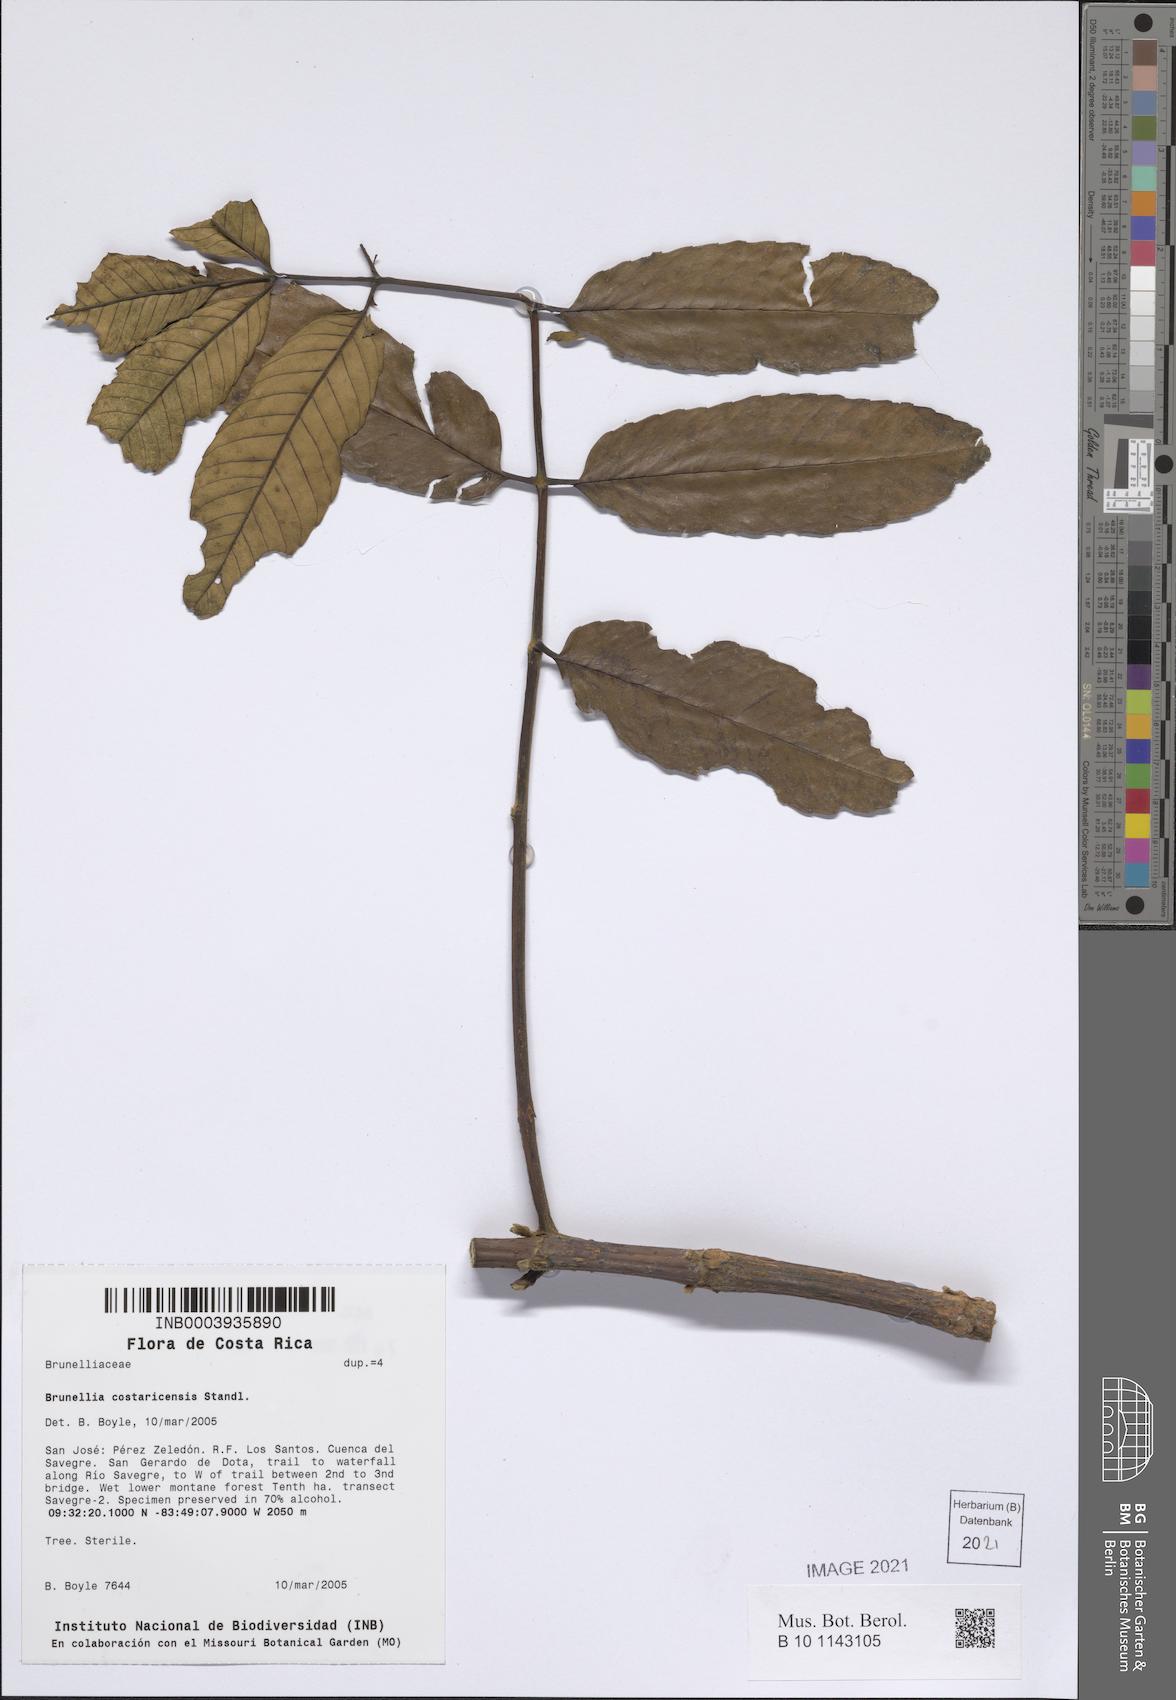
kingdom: Plantae
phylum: Tracheophyta
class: Magnoliopsida
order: Oxalidales
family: Brunelliaceae
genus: Brunellia
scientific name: Brunellia costaricensis
